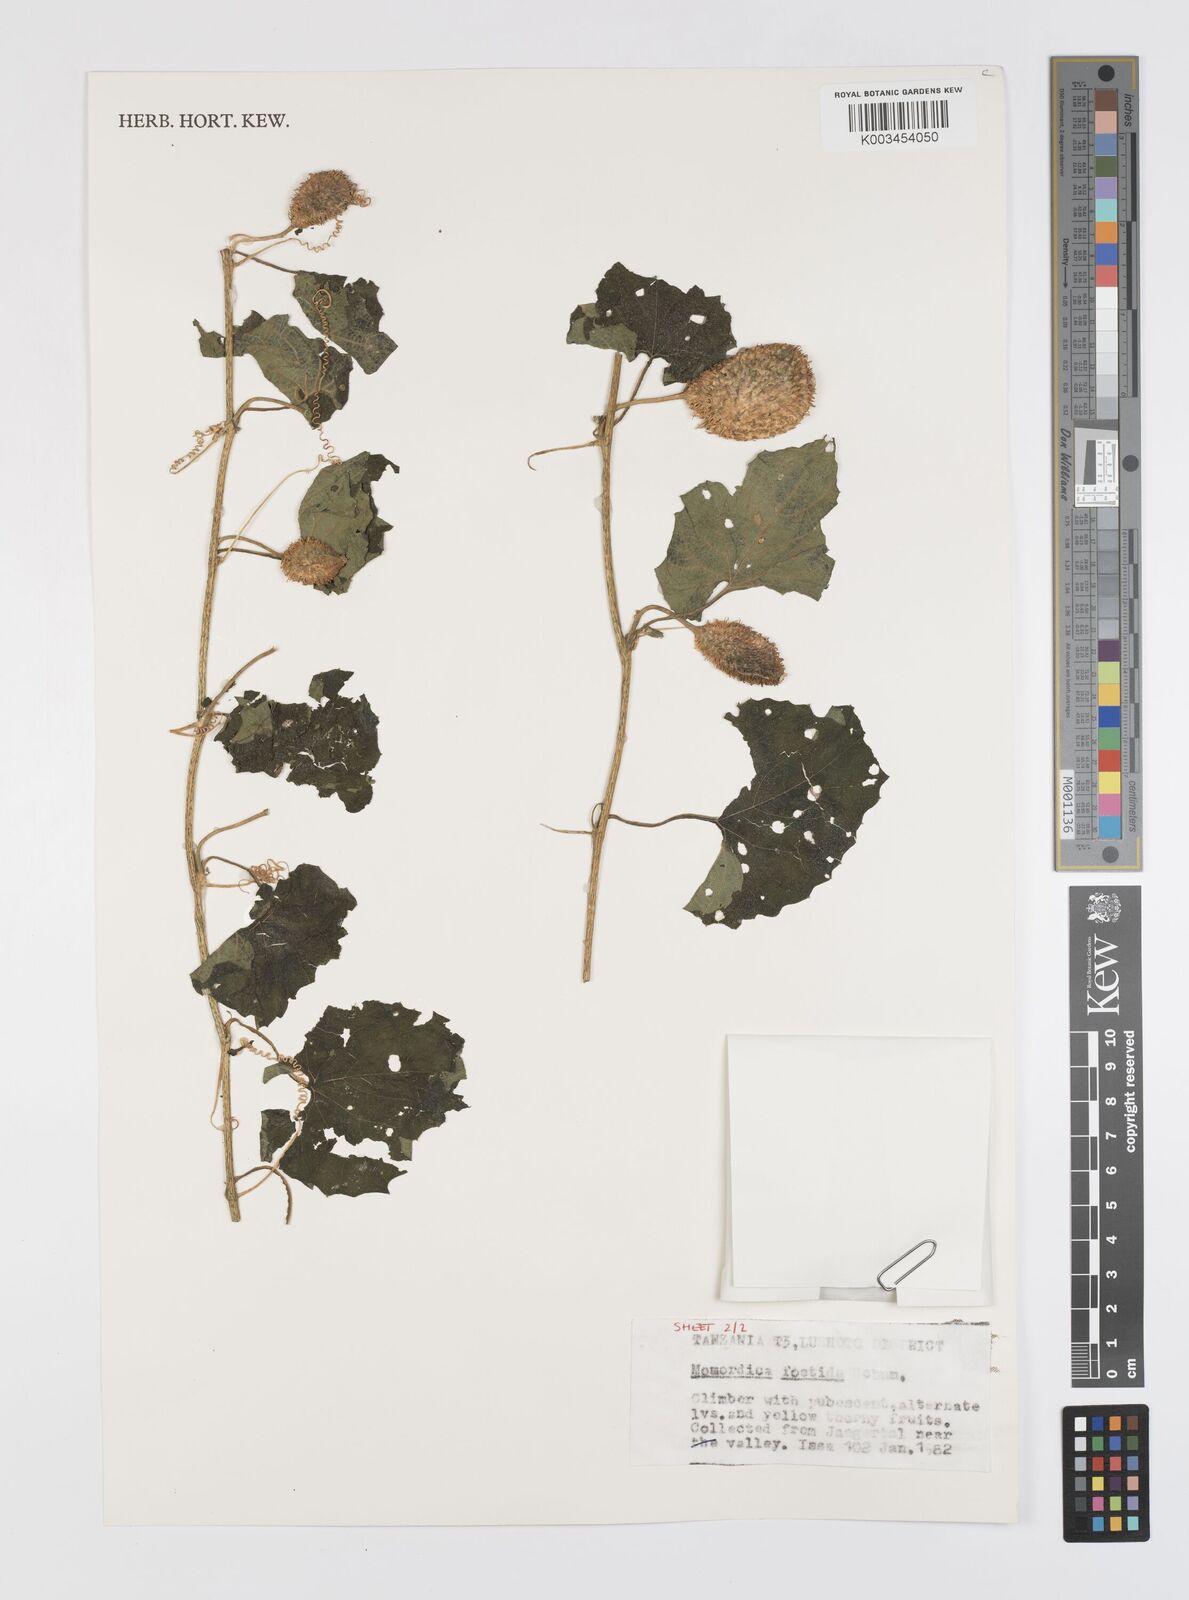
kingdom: Plantae
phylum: Tracheophyta
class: Magnoliopsida
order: Cucurbitales
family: Cucurbitaceae
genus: Momordica
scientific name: Momordica foetida
